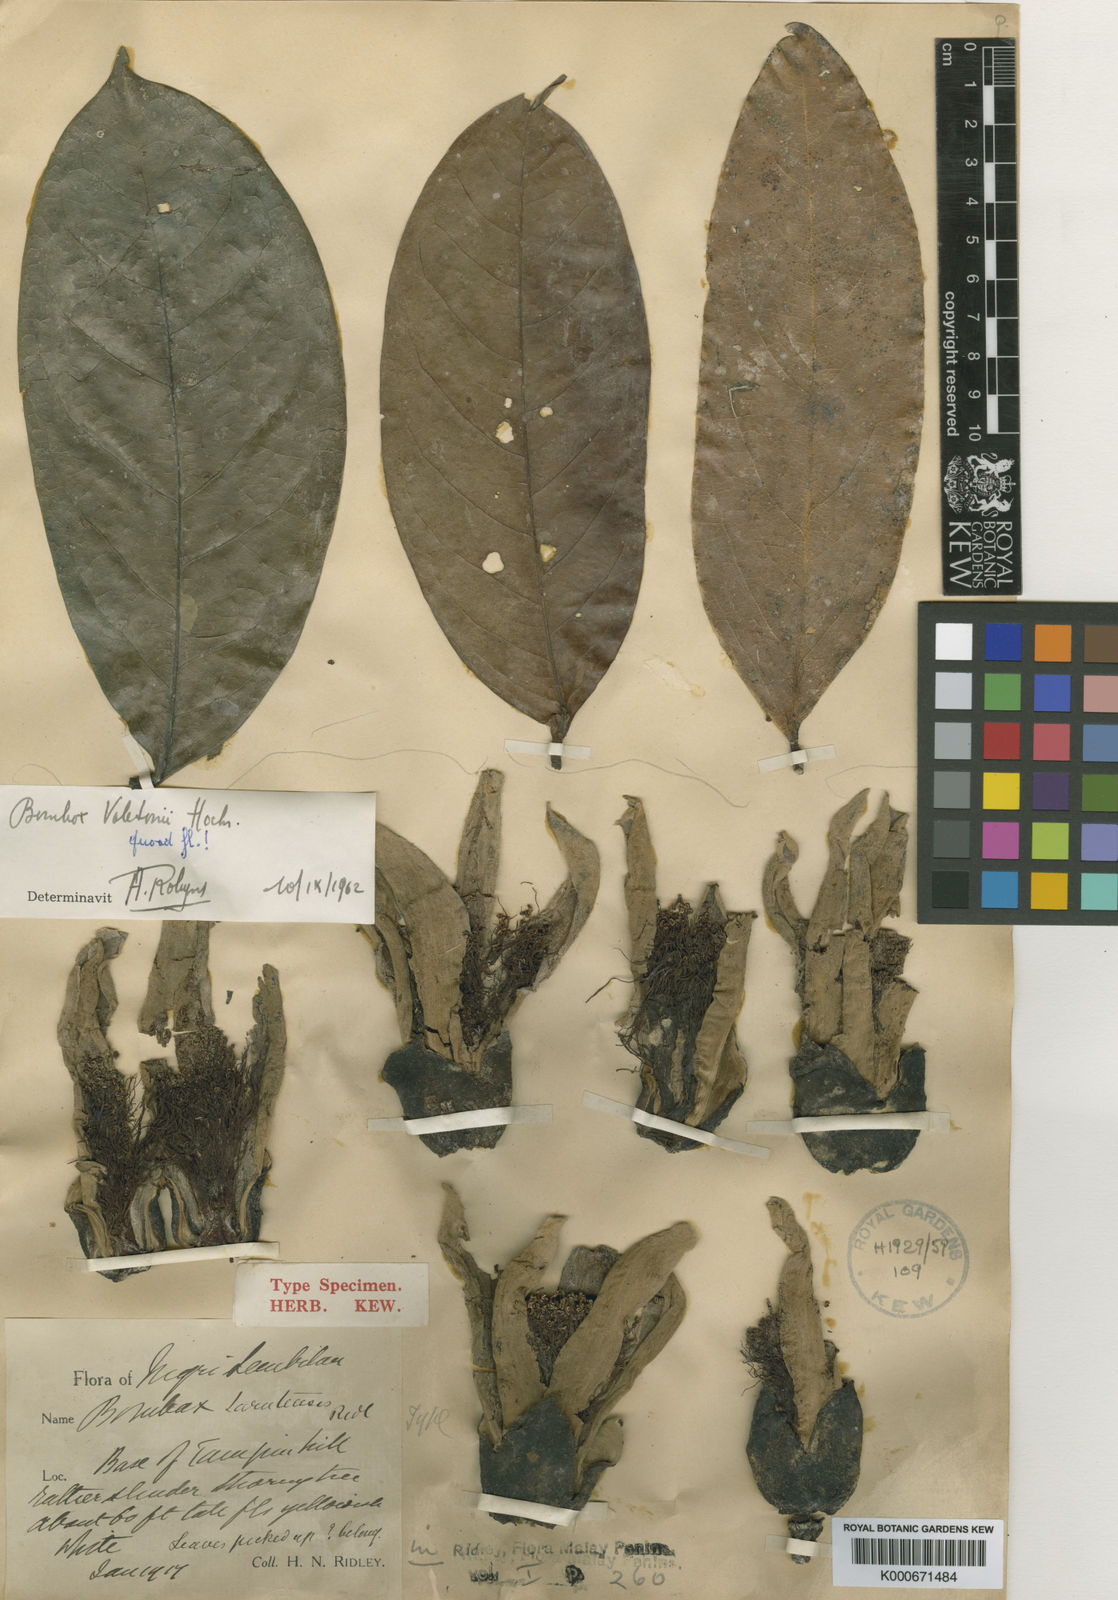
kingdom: Plantae
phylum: Tracheophyta
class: Magnoliopsida
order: Malvales
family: Malvaceae
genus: Bombax
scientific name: Bombax anceps
